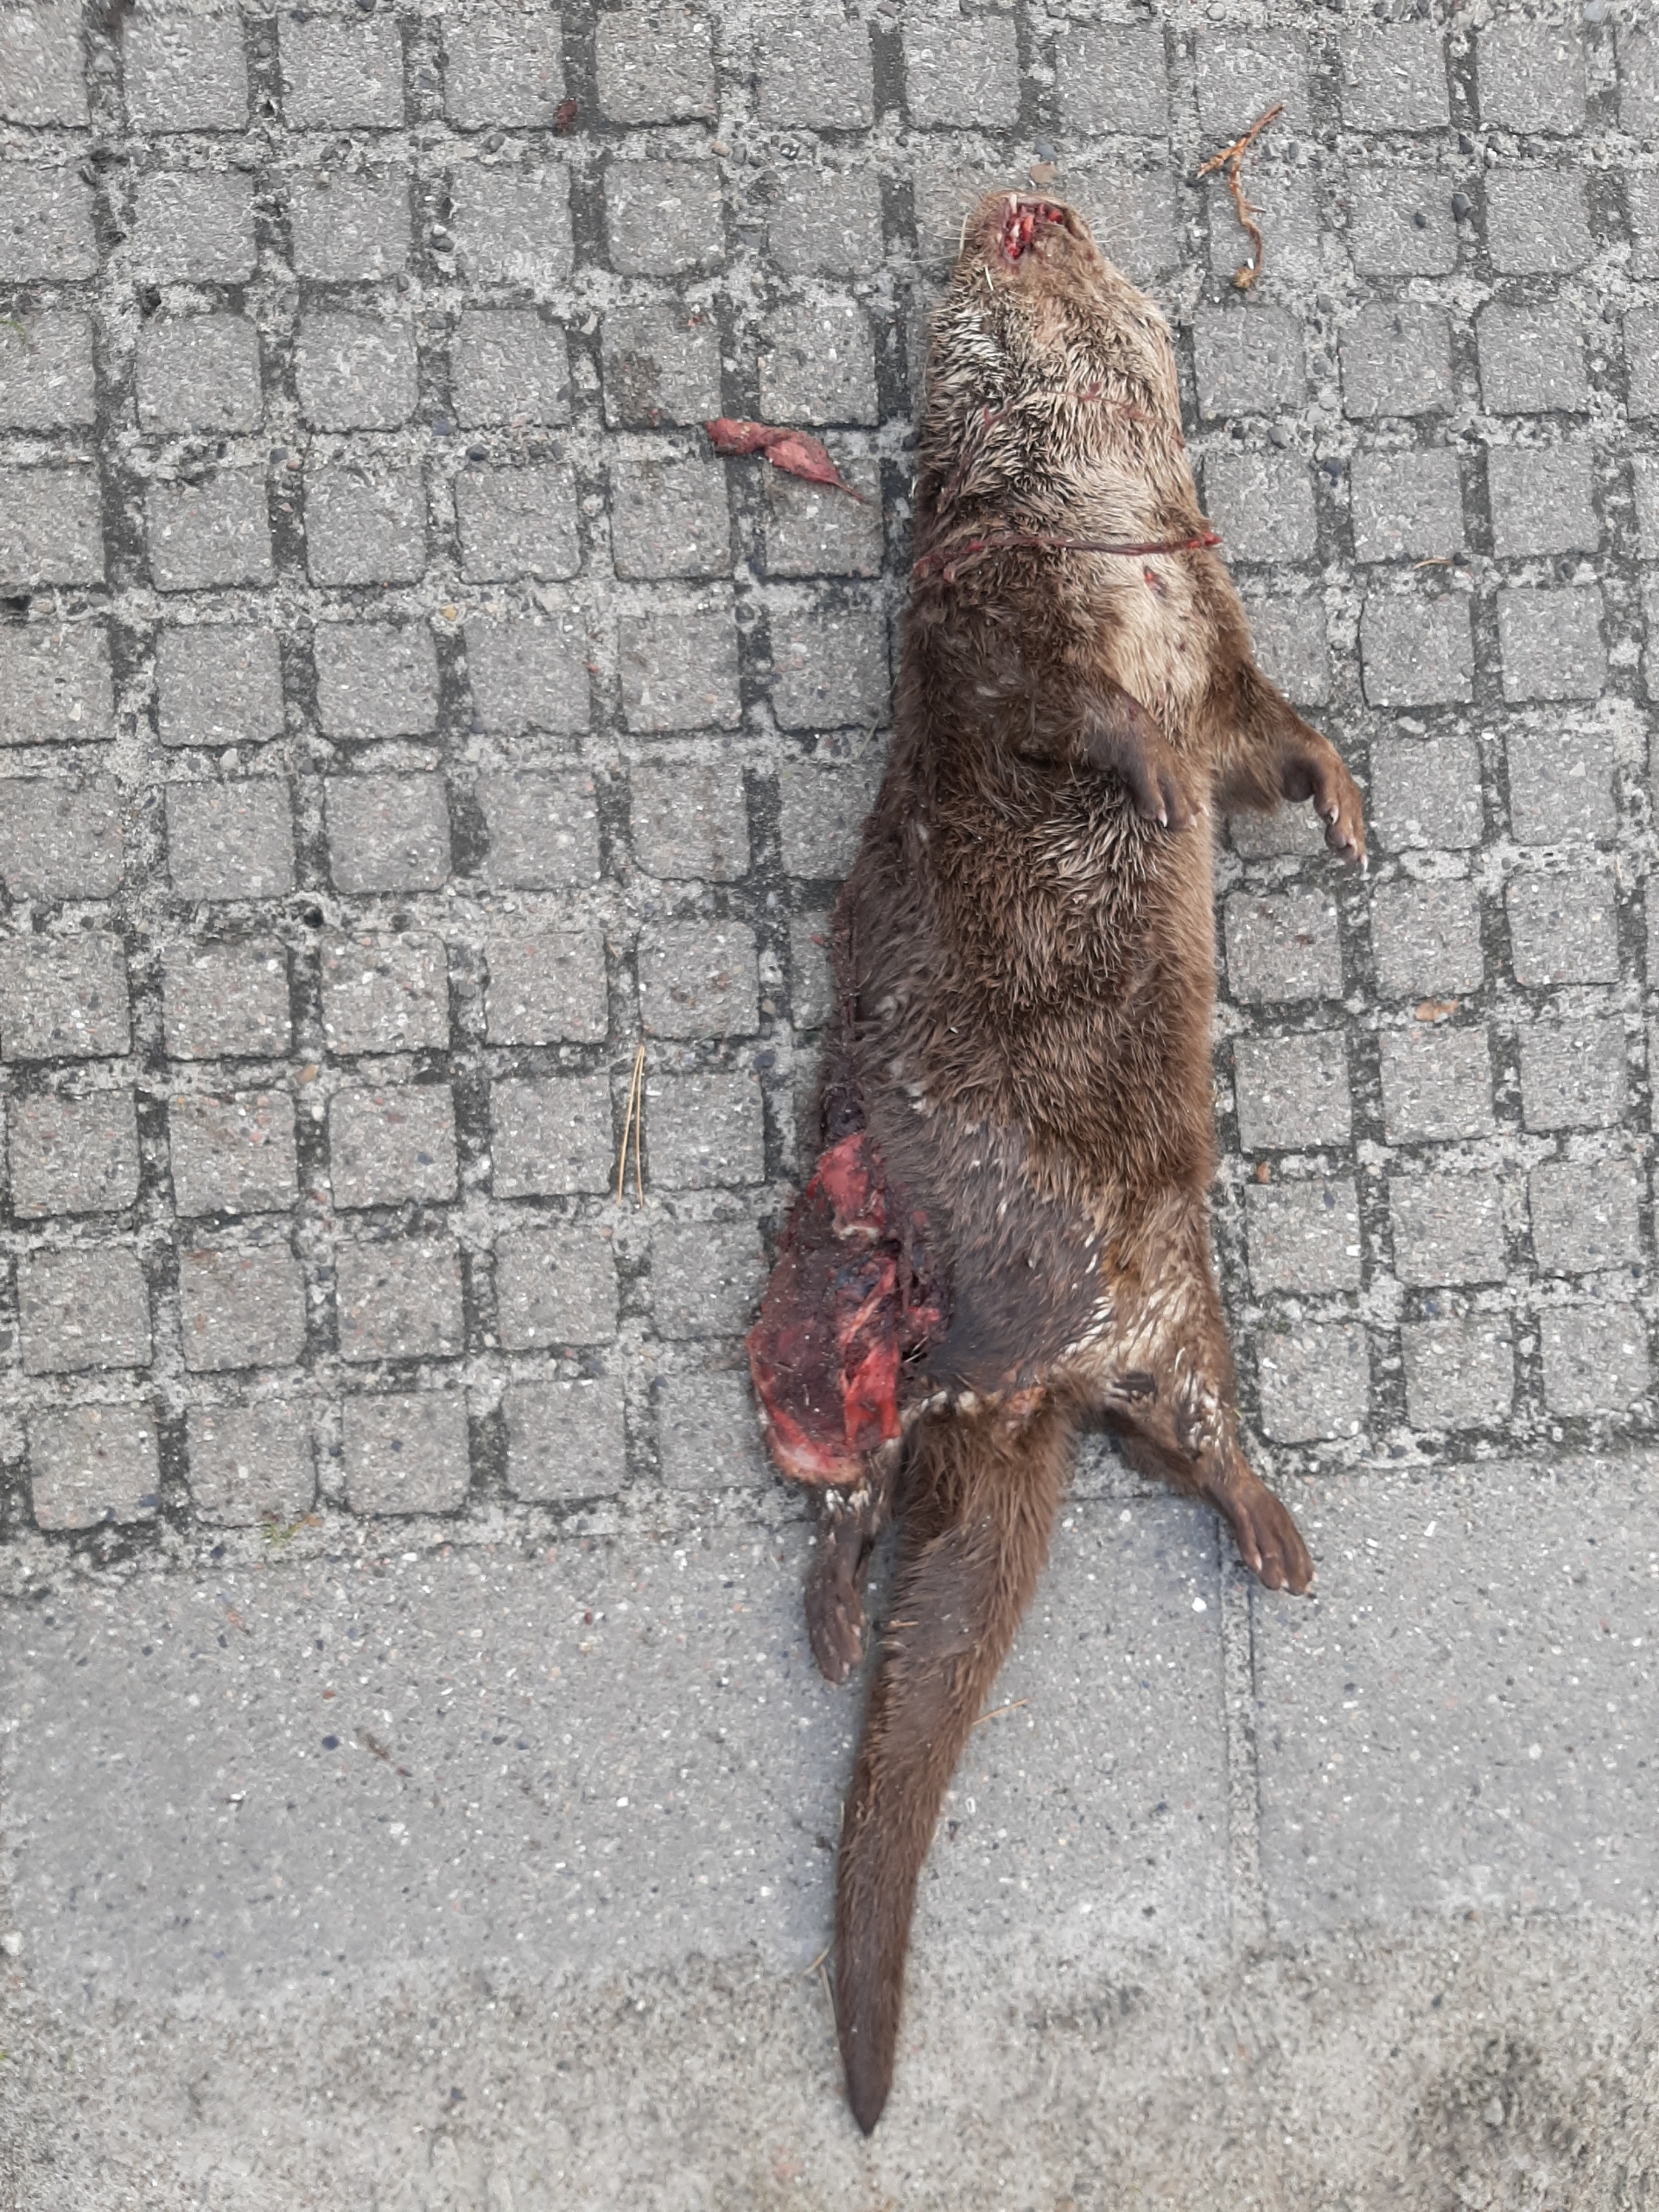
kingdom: Animalia
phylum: Chordata
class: Mammalia
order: Carnivora
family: Mustelidae
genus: Lutra
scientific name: Lutra lutra
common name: Odder
